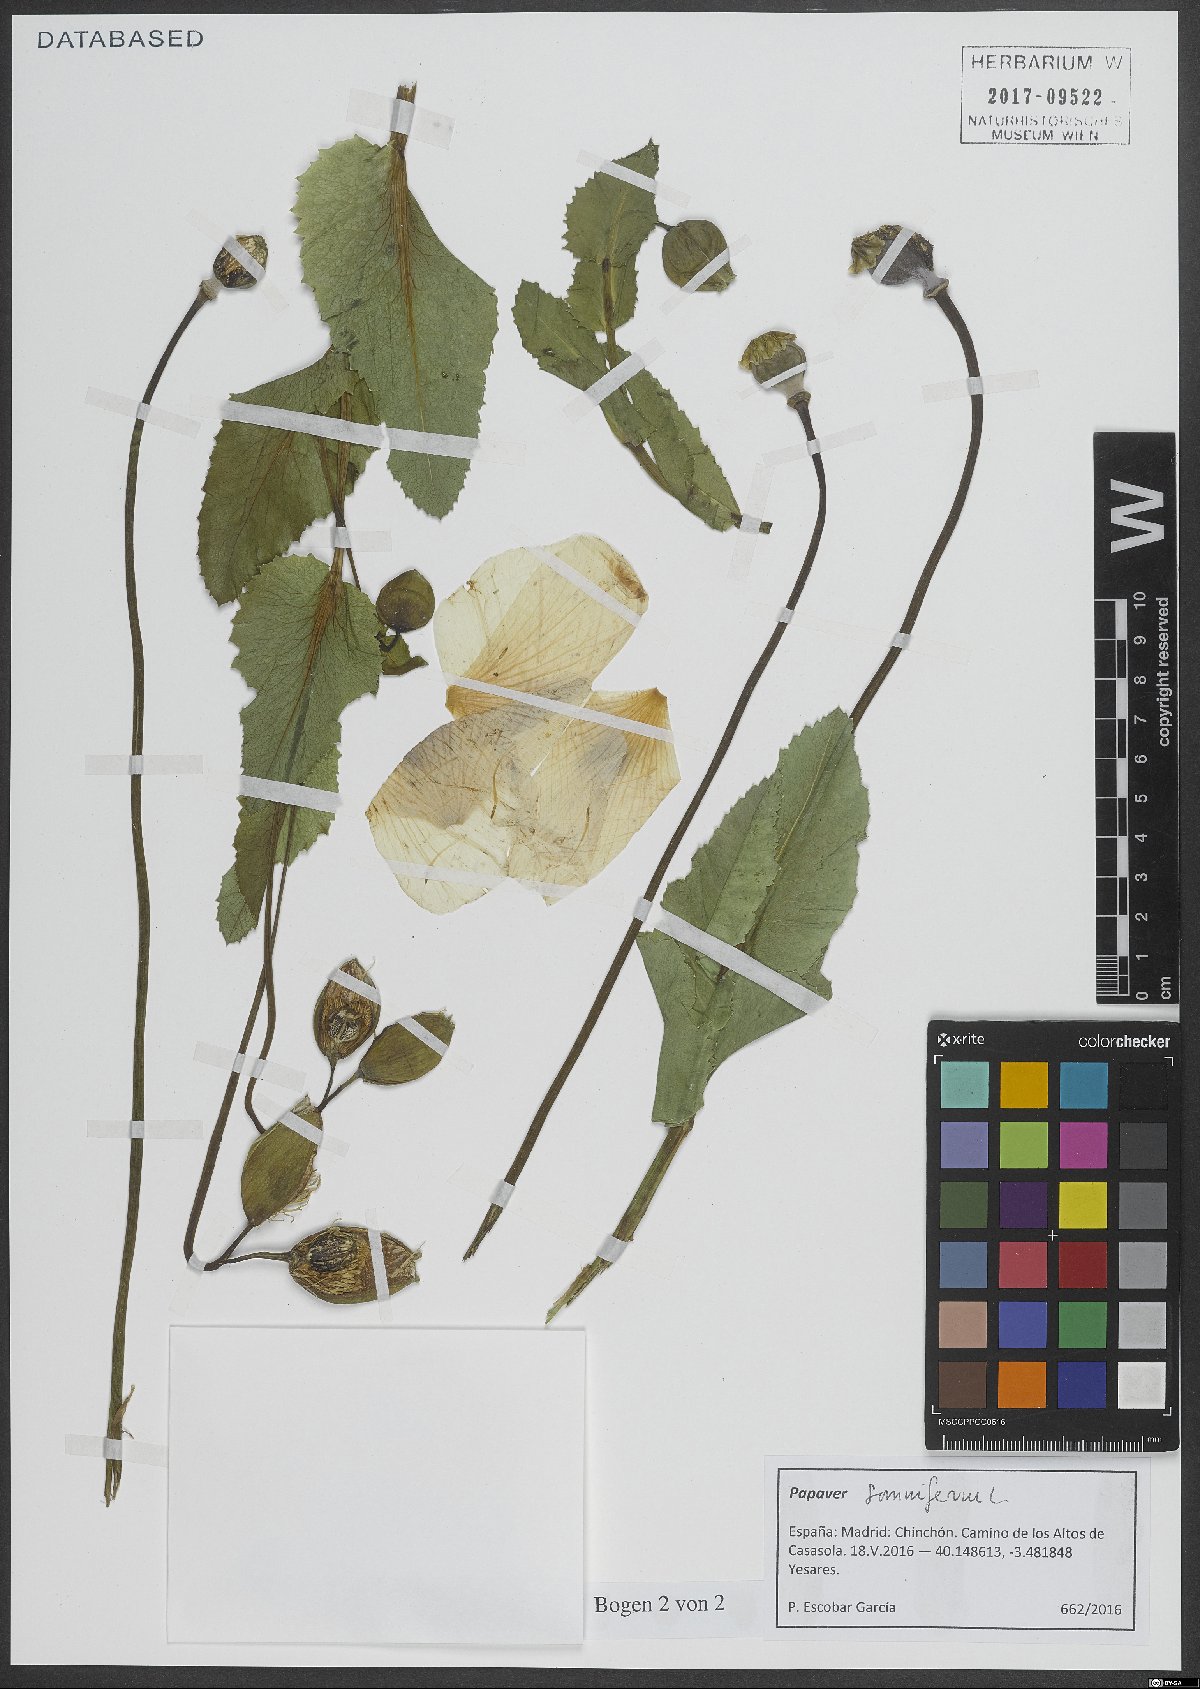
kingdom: Plantae
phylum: Tracheophyta
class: Magnoliopsida
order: Ranunculales
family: Papaveraceae
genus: Papaver
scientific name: Papaver somniferum
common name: Opium poppy
